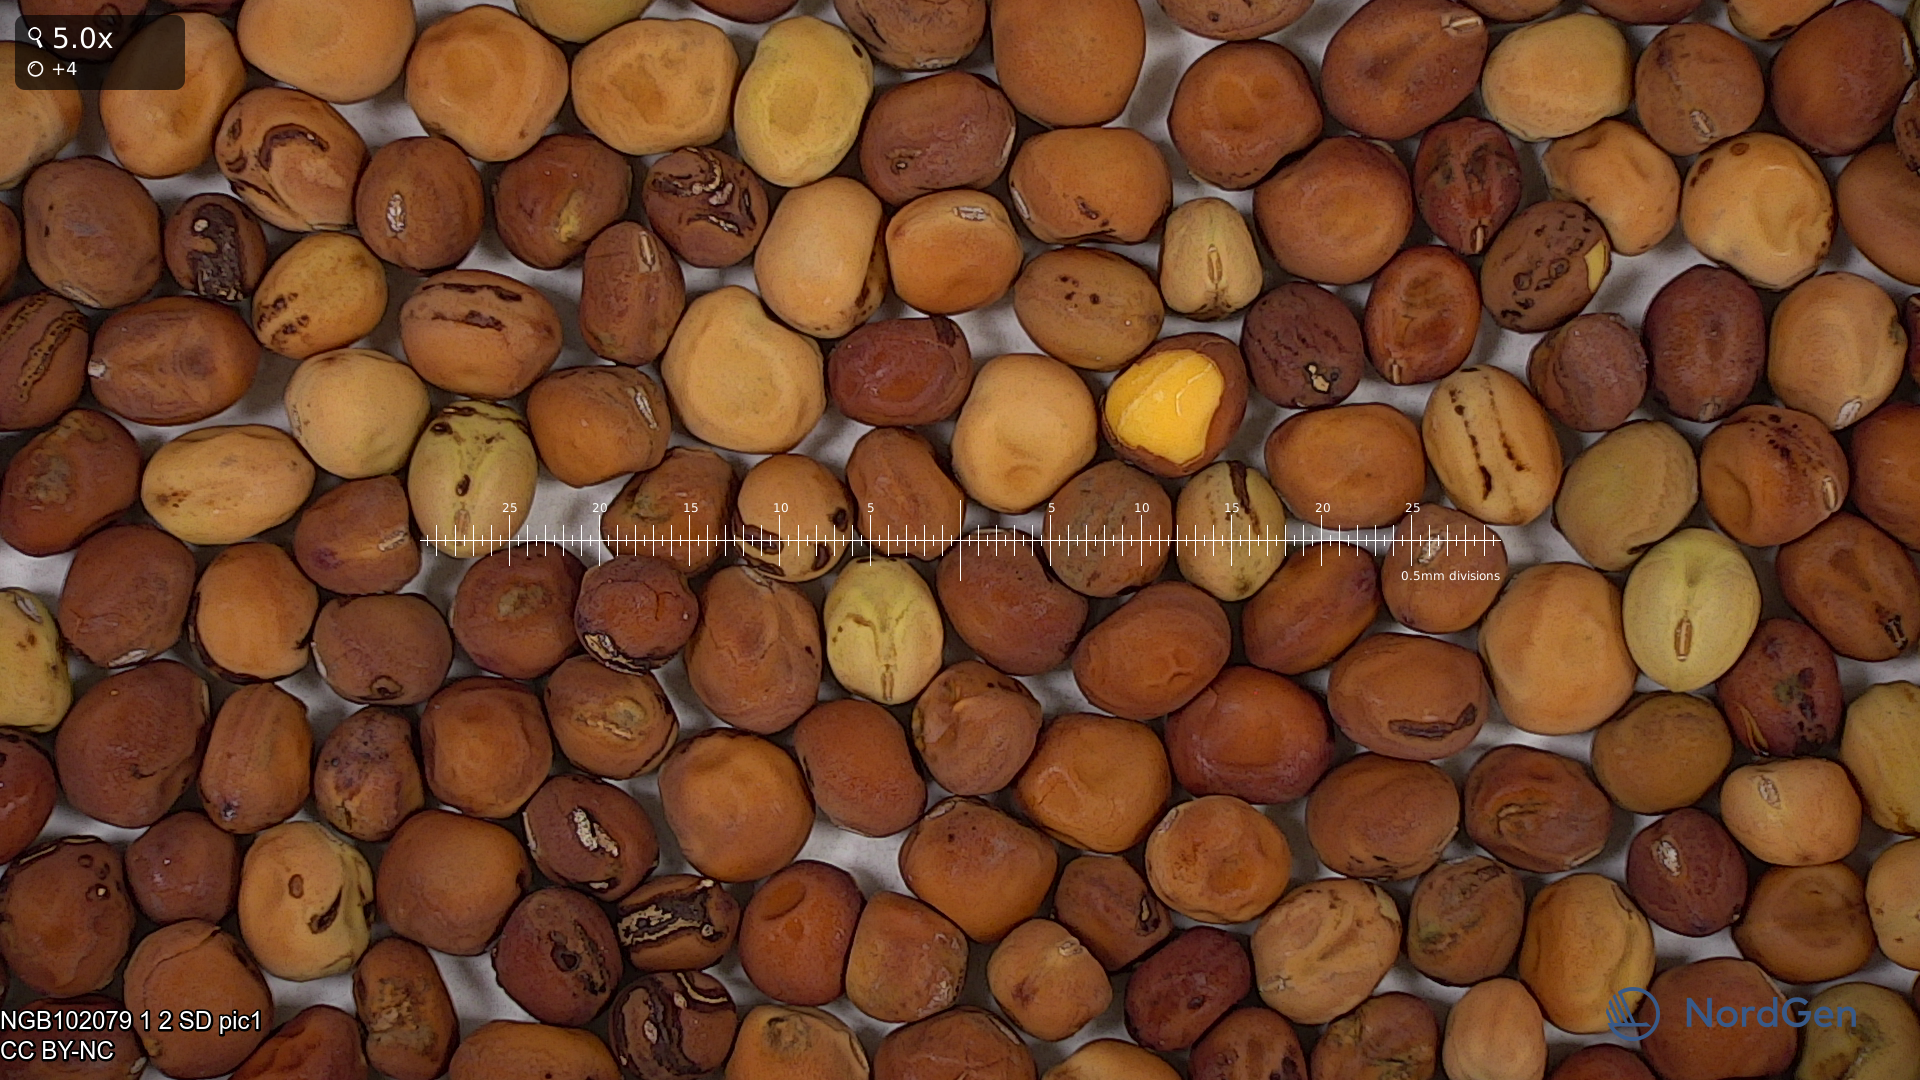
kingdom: Plantae
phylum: Tracheophyta
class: Magnoliopsida
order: Fabales
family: Fabaceae
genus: Lathyrus
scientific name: Lathyrus oleraceus
